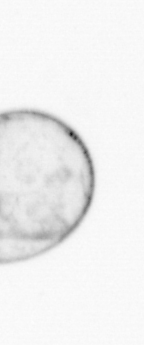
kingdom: Chromista
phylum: Myzozoa
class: Dinophyceae
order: Noctilucales
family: Noctilucaceae
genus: Noctiluca
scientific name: Noctiluca scintillans
